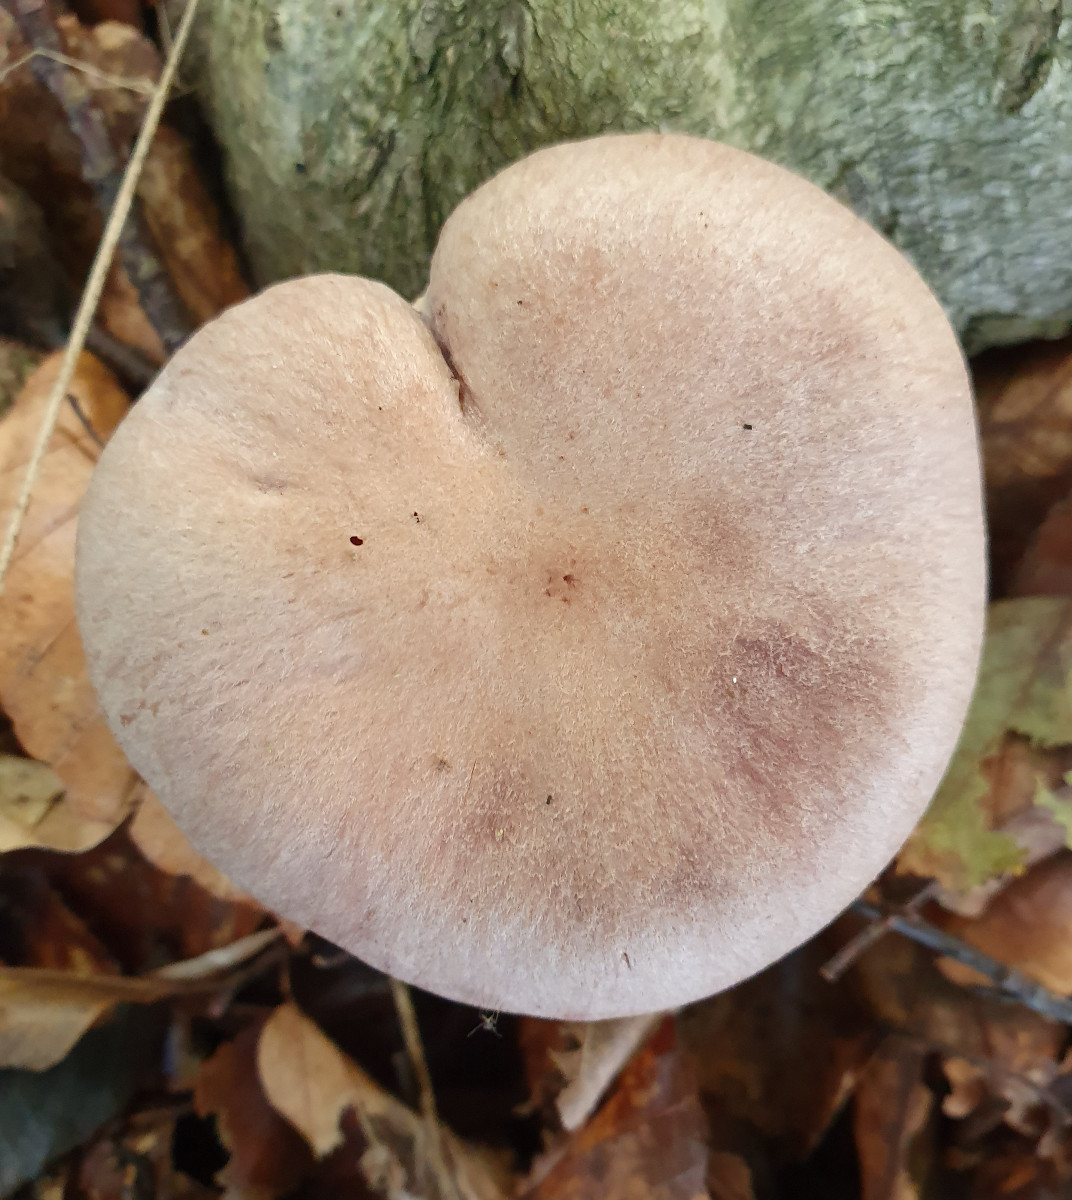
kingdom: Fungi
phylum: Basidiomycota
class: Agaricomycetes
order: Agaricales
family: Cortinariaceae
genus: Cortinarius
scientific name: Cortinarius torvus
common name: champignonagtig slørhat
